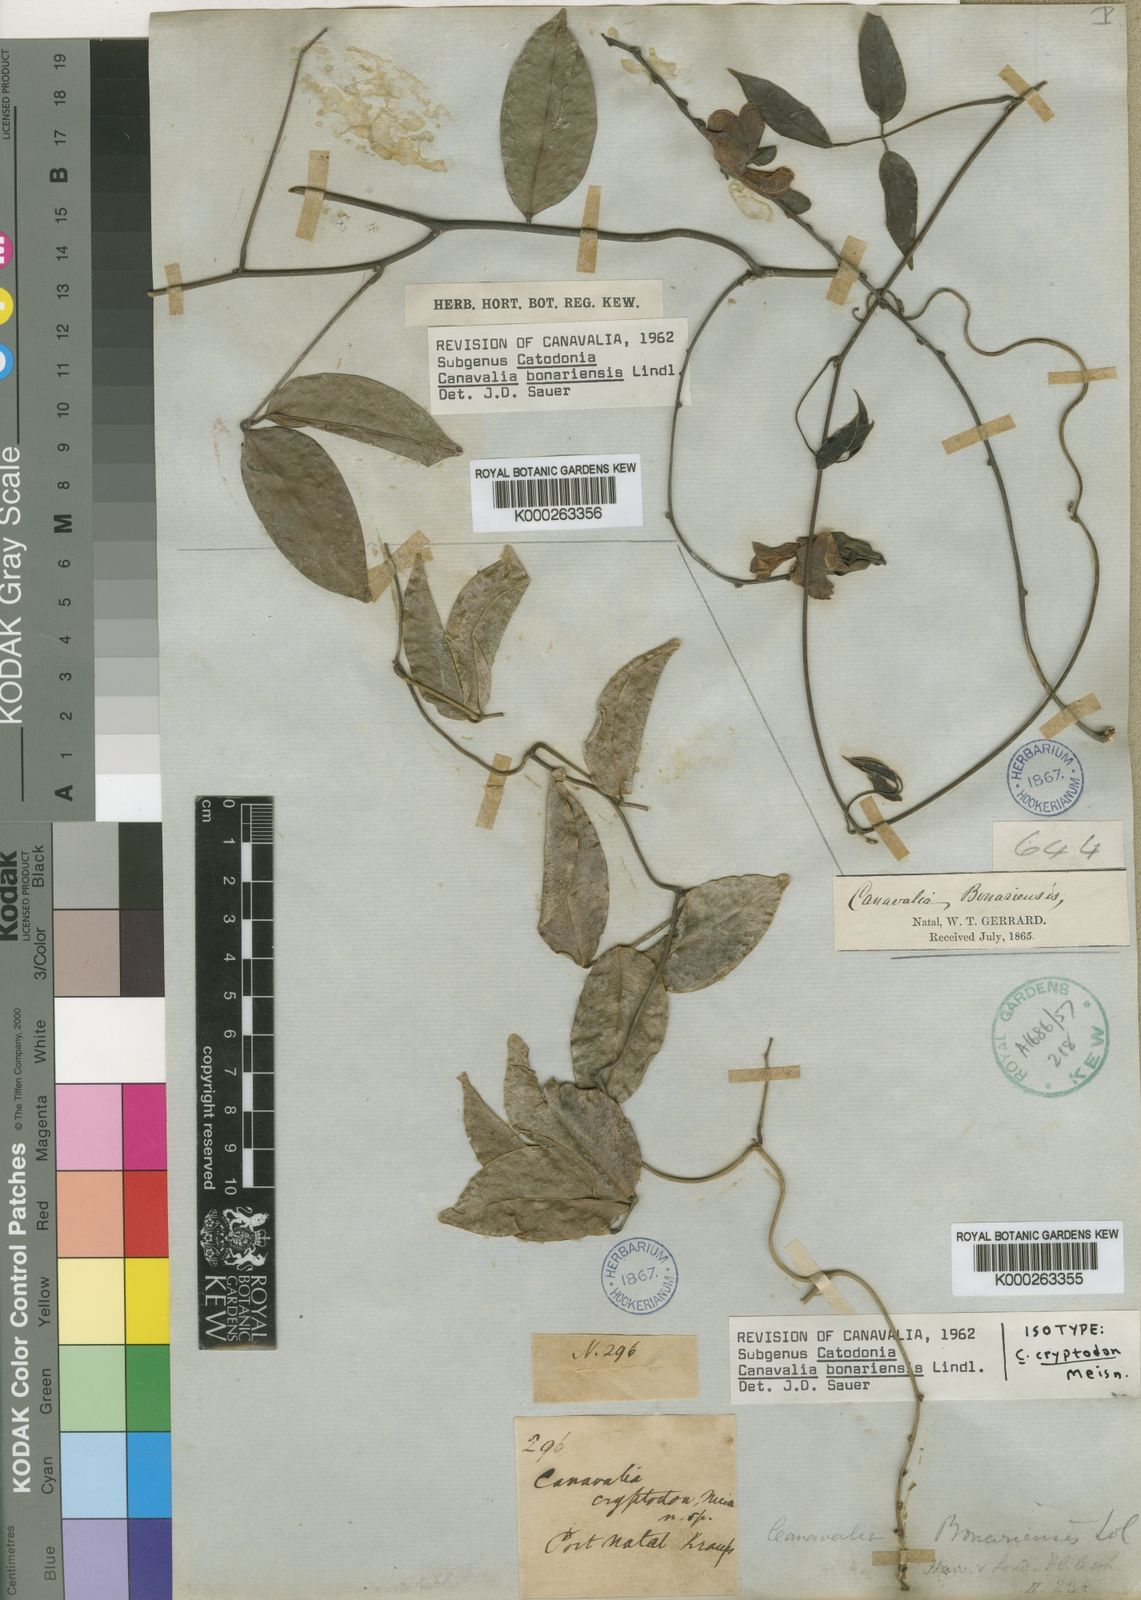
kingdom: Plantae
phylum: Tracheophyta
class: Magnoliopsida
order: Fabales
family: Fabaceae
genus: Canavalia
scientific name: Canavalia bonariensis
